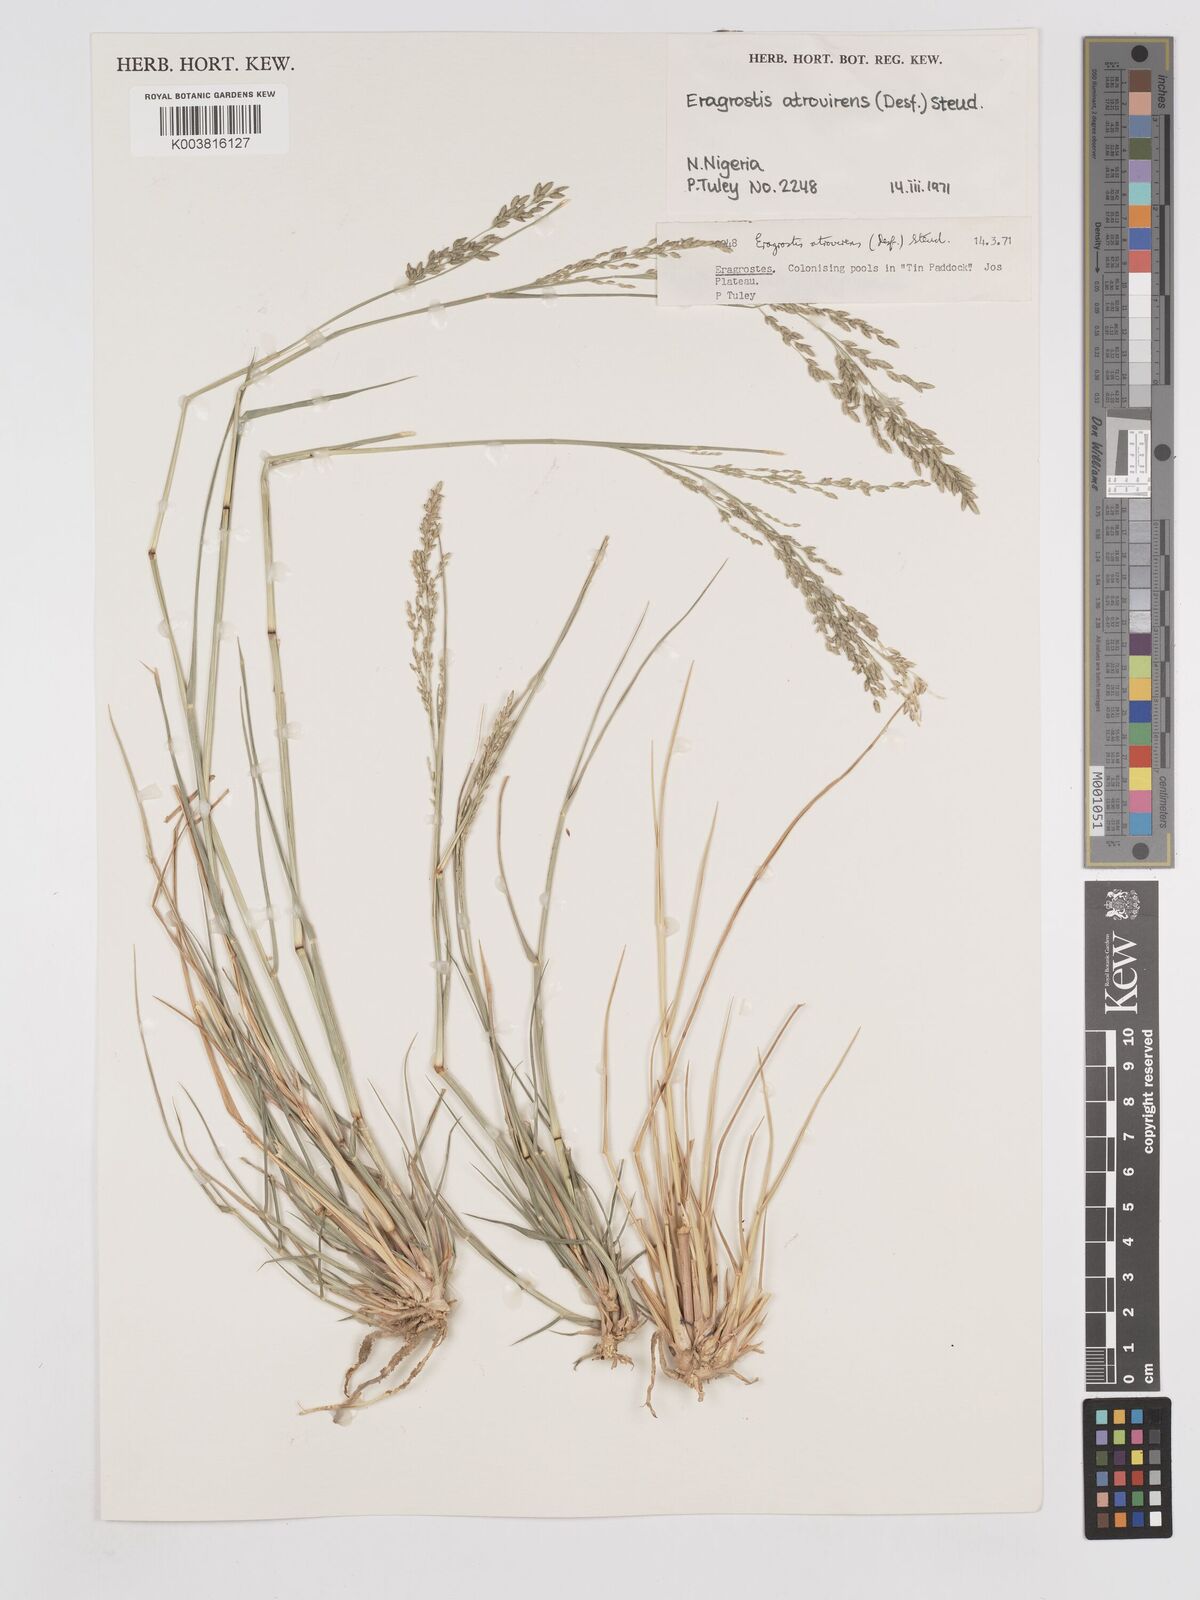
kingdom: Plantae
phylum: Tracheophyta
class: Liliopsida
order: Poales
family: Poaceae
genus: Eragrostis
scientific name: Eragrostis atrovirens
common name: Thalia lovegrass
